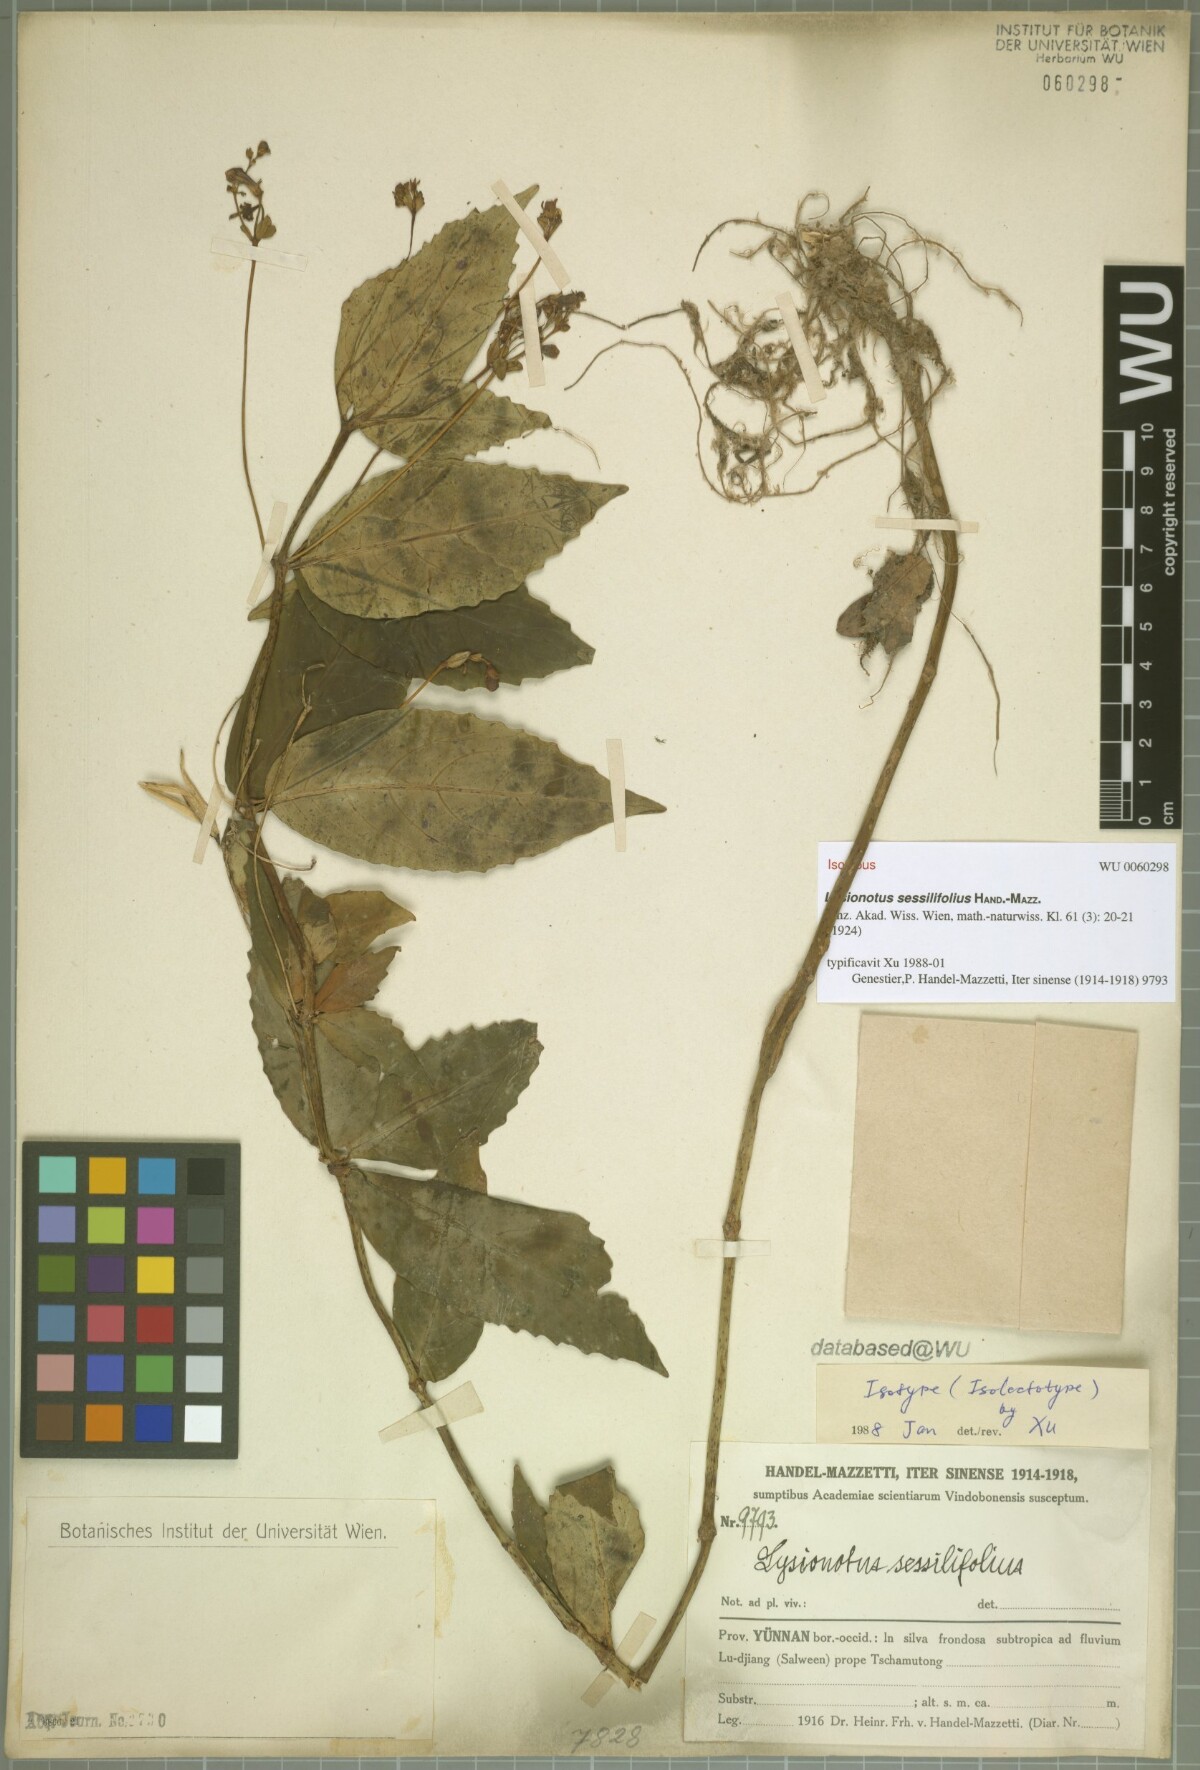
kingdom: Plantae
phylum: Tracheophyta
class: Magnoliopsida
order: Lamiales
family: Gesneriaceae
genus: Lysionotus
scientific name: Lysionotus sessilifolius
